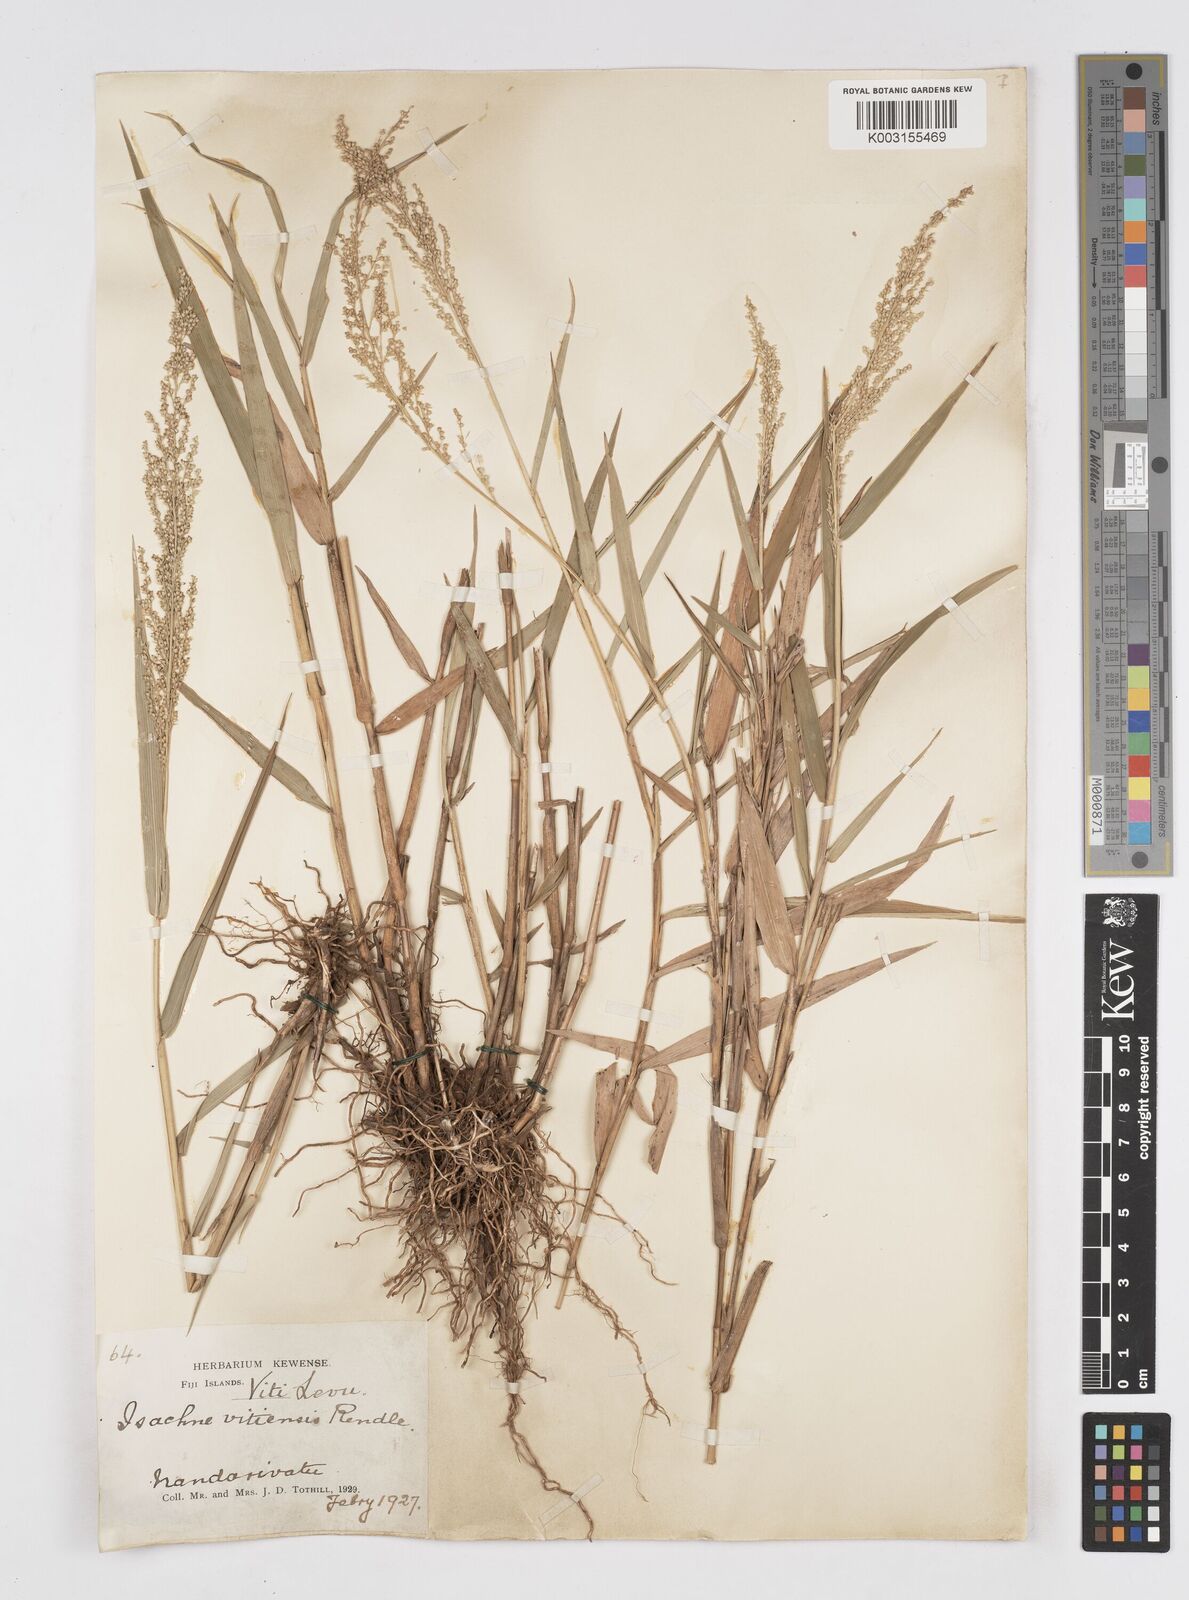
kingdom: Plantae
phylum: Tracheophyta
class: Liliopsida
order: Poales
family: Poaceae
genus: Isachne
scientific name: Isachne vitiensis
